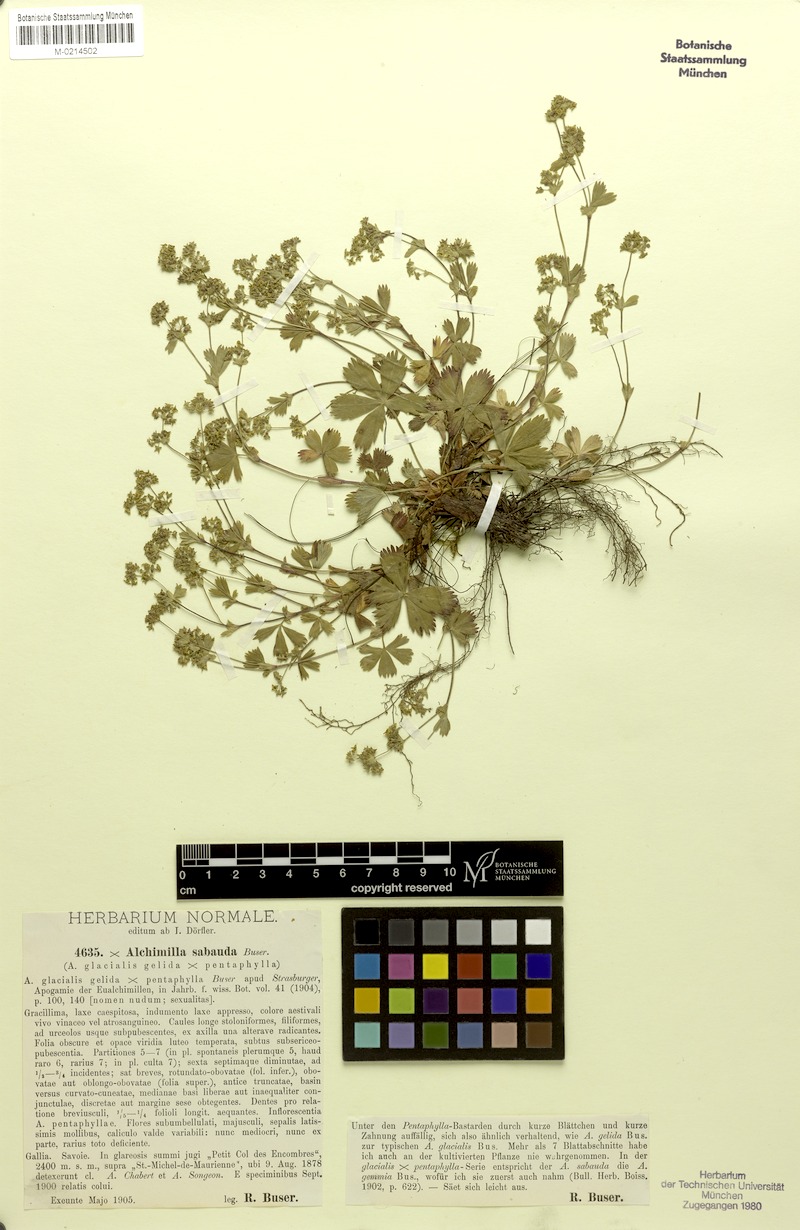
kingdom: Plantae
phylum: Tracheophyta
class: Magnoliopsida
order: Rosales
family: Rosaceae
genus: Alchemilla
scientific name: Alchemilla trullata
